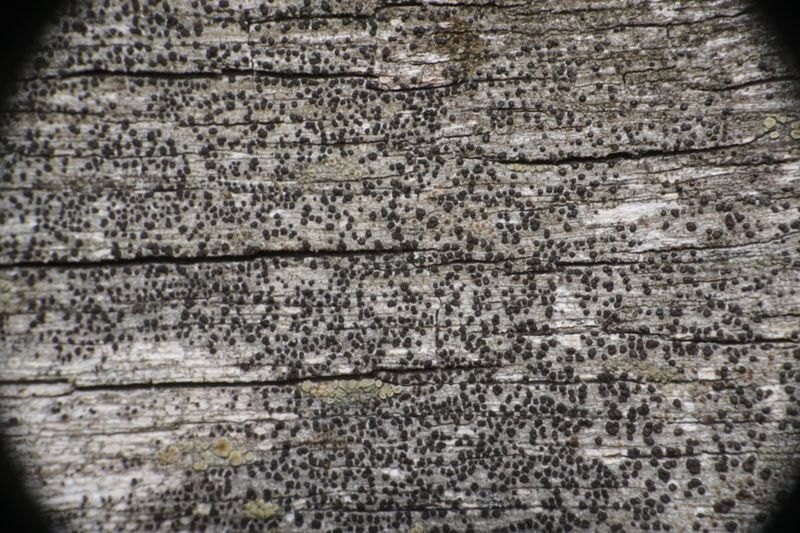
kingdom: Fungi
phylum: Ascomycota
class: Lecanoromycetes
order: Lecanorales
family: Strangosporaceae
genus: Strangospora
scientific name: Strangospora pinicola
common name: bark-tusindsporelav
